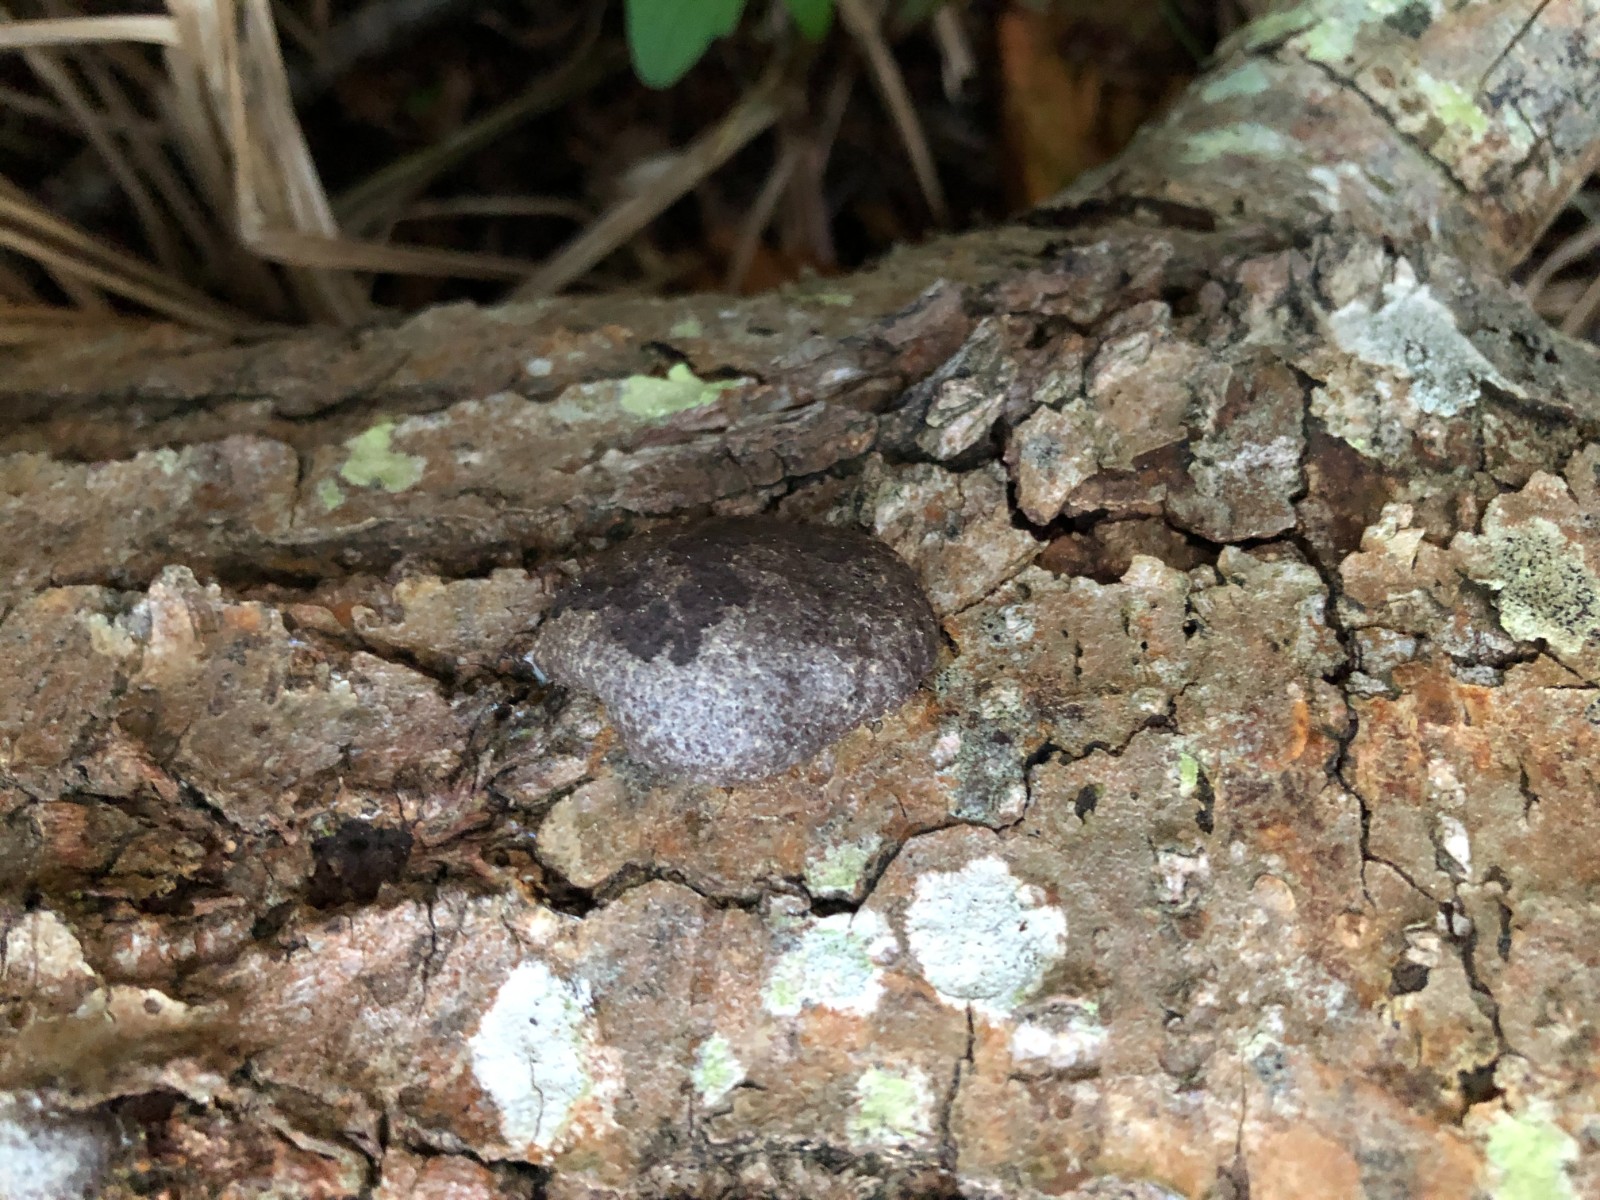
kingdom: Protozoa
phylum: Mycetozoa
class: Myxomycetes
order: Cribrariales
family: Tubiferaceae
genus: Reticularia
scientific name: Reticularia lycoperdon
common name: skinnende støvpude
